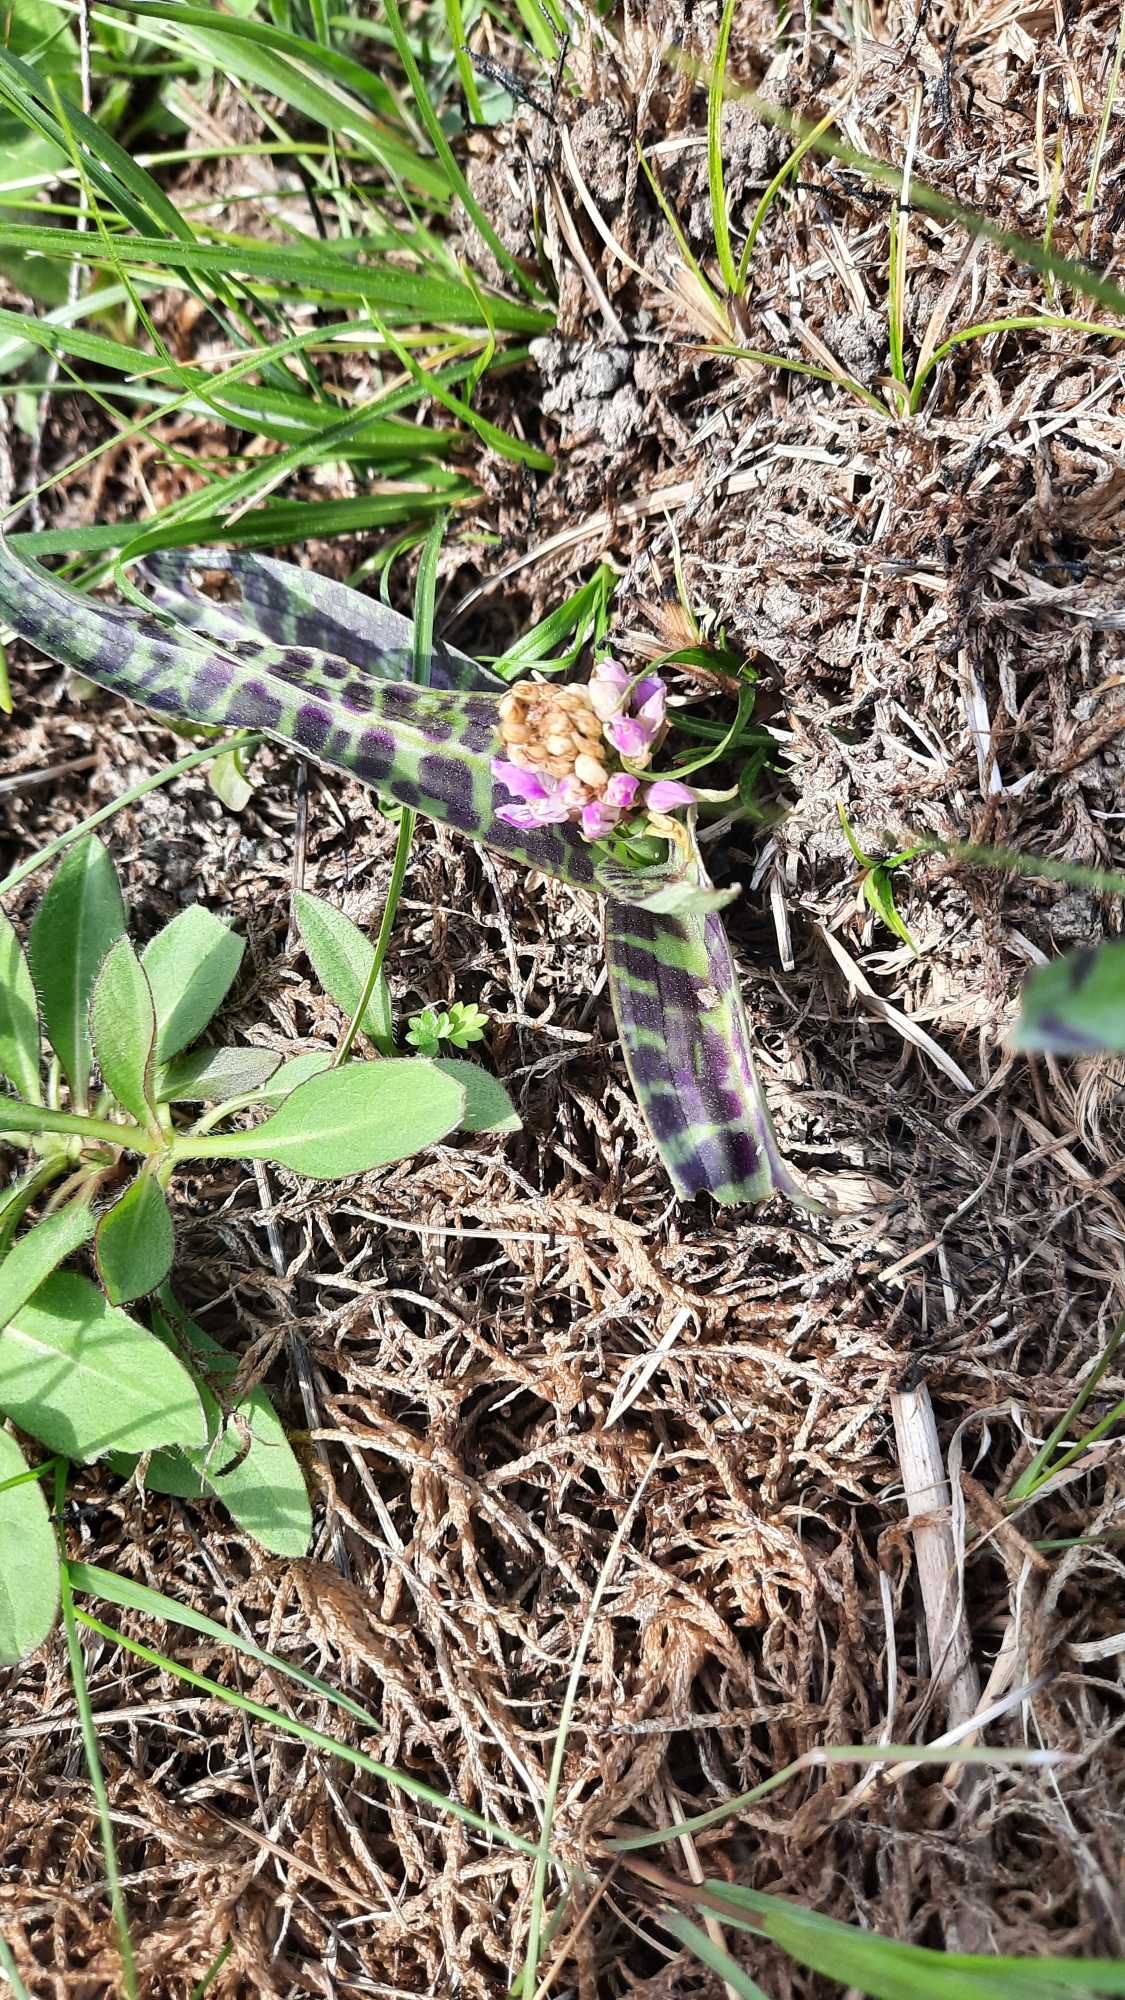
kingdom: Plantae
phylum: Tracheophyta
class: Liliopsida
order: Asparagales
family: Orchidaceae
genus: Dactylorhiza
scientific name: Dactylorhiza maculata
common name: Plettet gøgeurt
